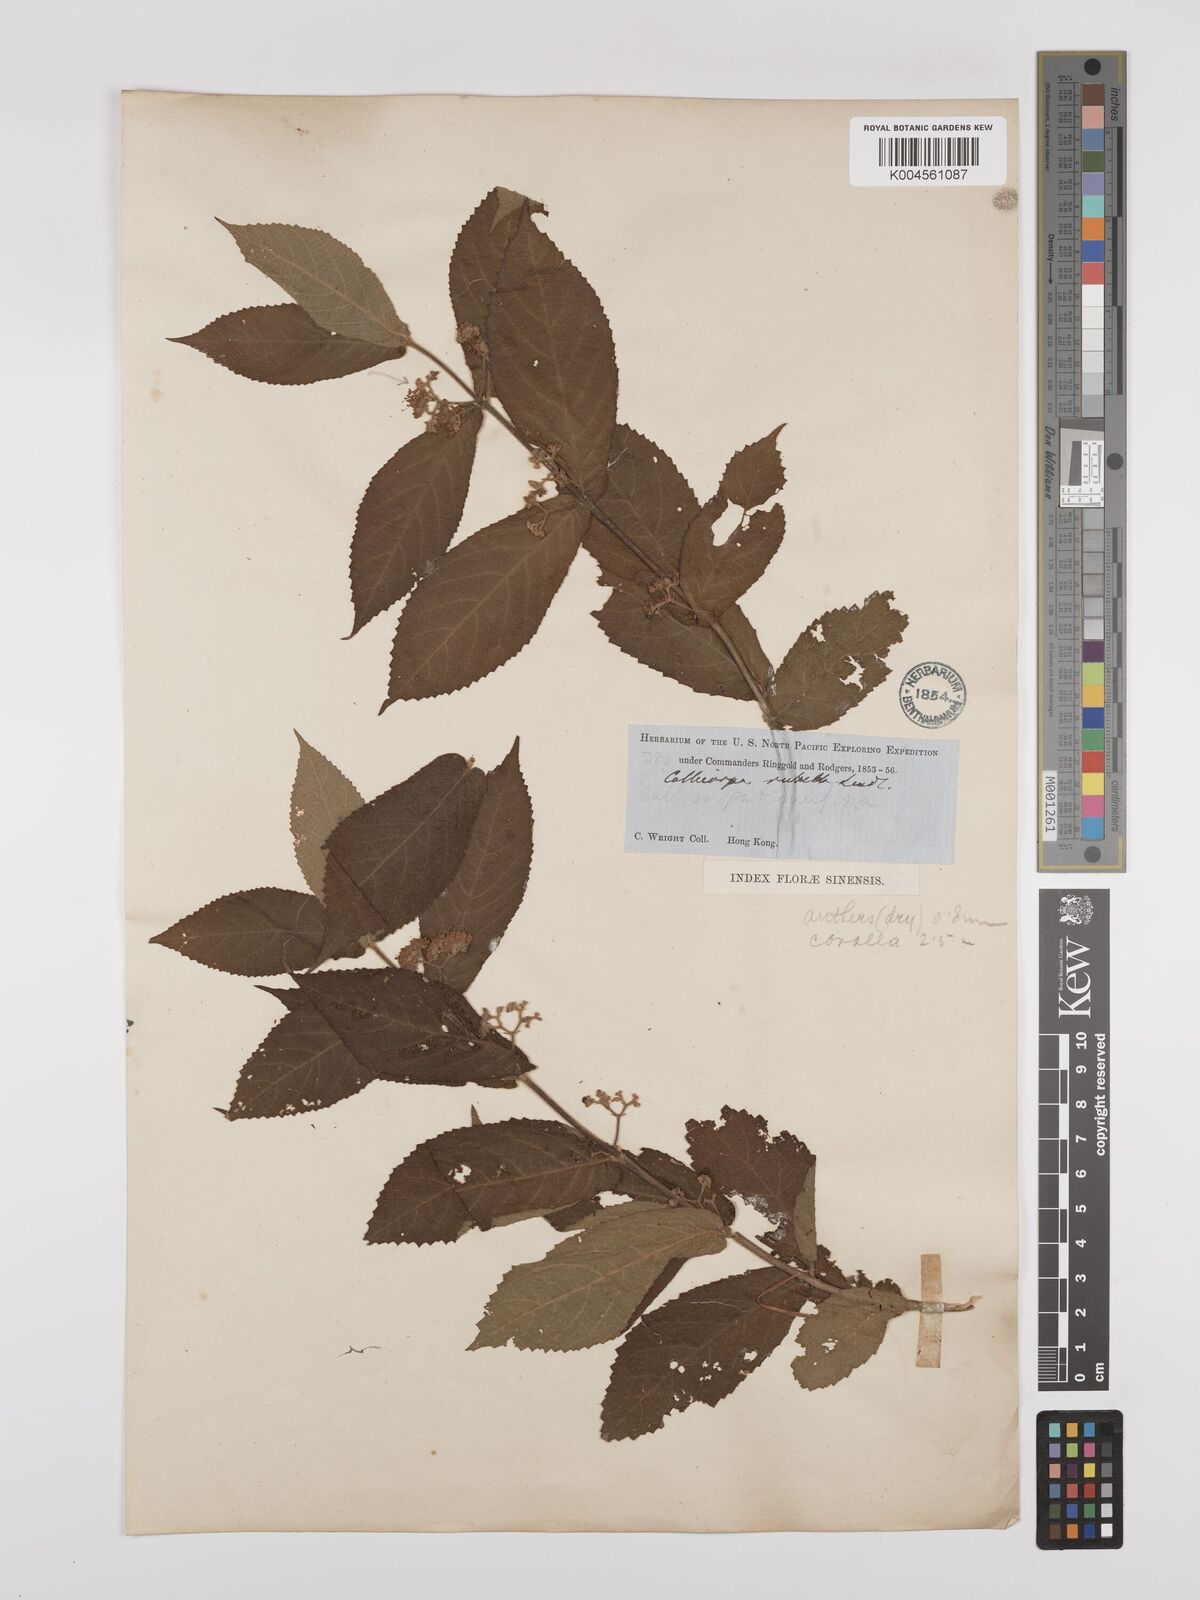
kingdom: Plantae
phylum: Tracheophyta
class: Magnoliopsida
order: Lamiales
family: Lamiaceae
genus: Callicarpa
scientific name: Callicarpa rubella
